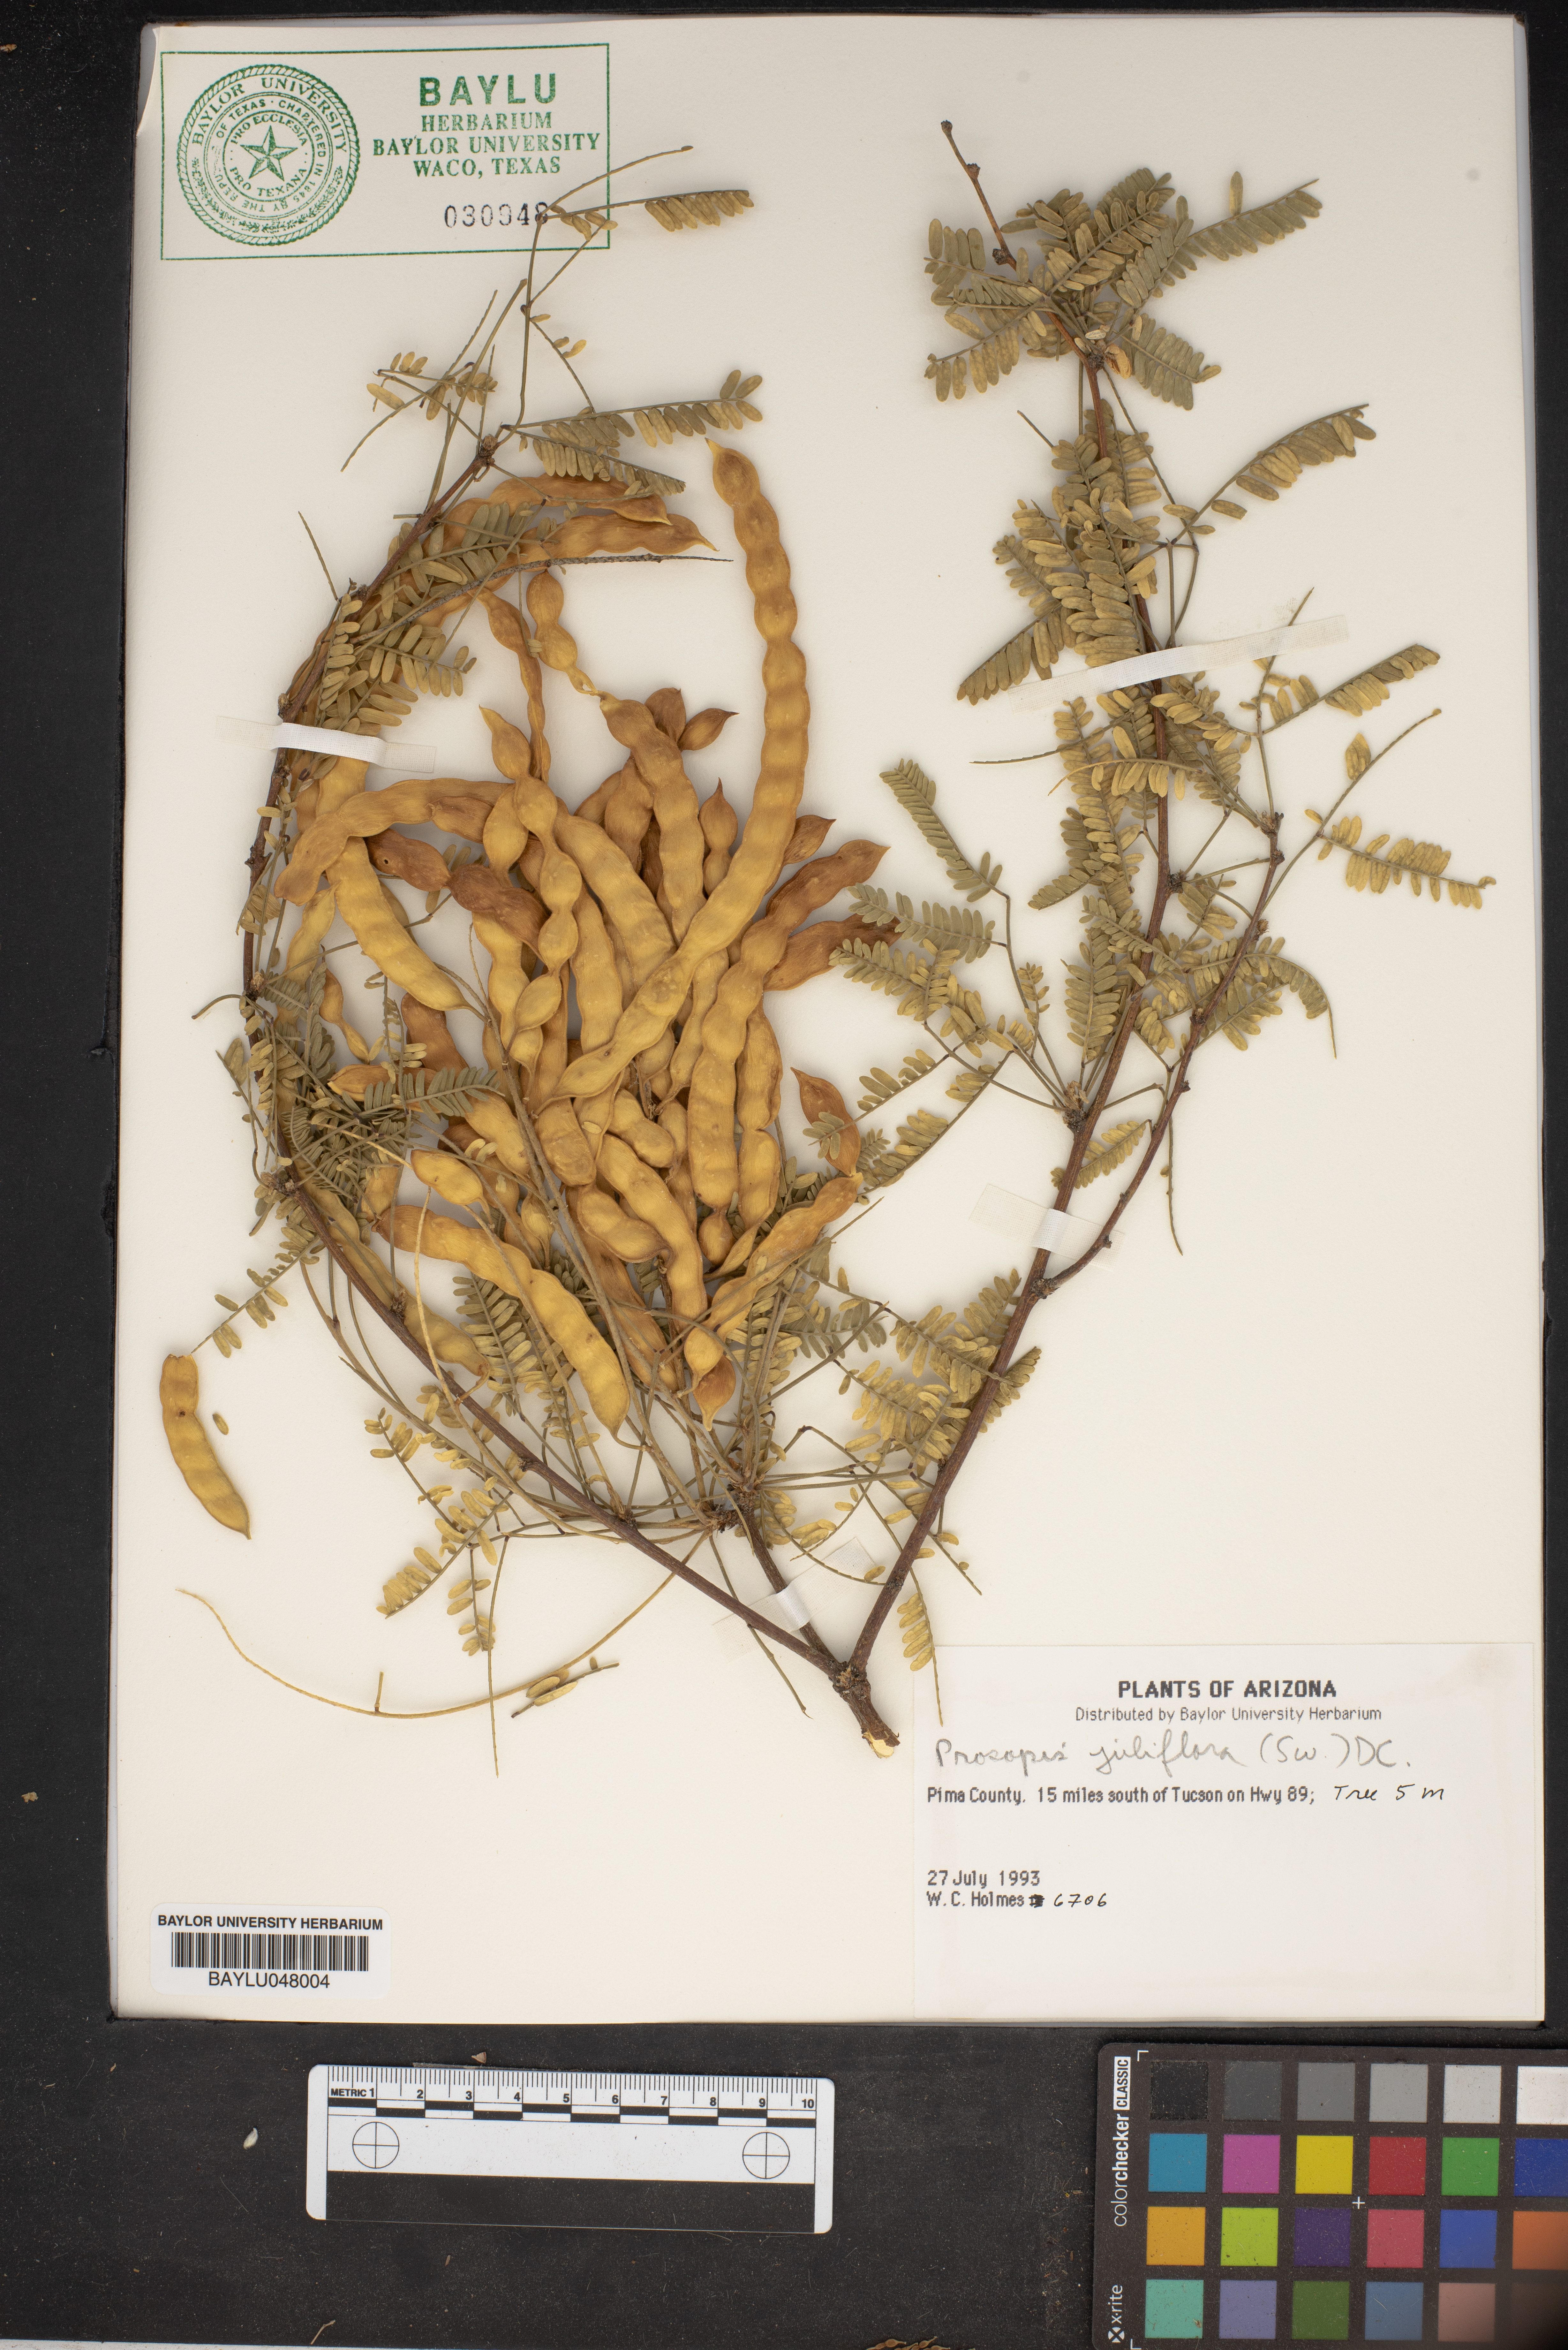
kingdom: Plantae
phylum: Tracheophyta
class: Magnoliopsida
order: Fabales
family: Fabaceae
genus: Prosopis
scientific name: Prosopis juliflora
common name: Mesquite
